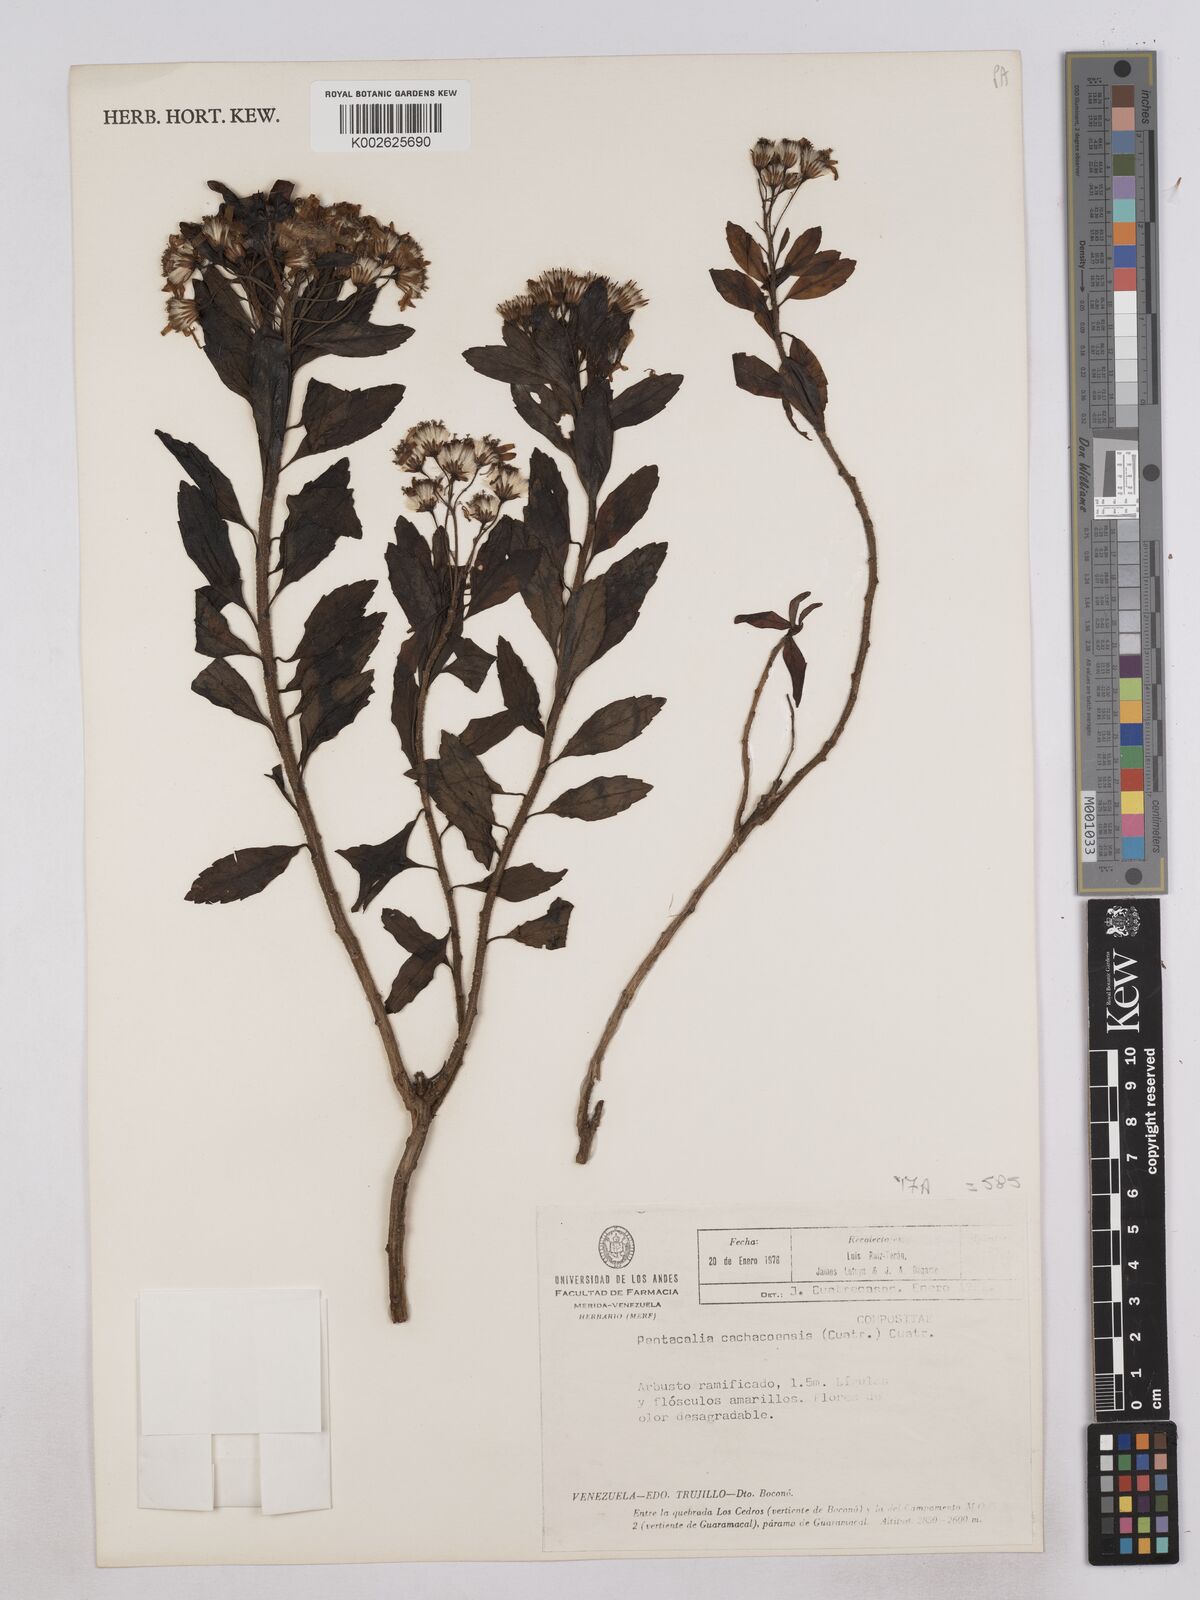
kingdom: Plantae
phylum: Tracheophyta
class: Magnoliopsida
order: Asterales
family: Asteraceae
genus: Monticalia
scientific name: Monticalia cachacoensis
